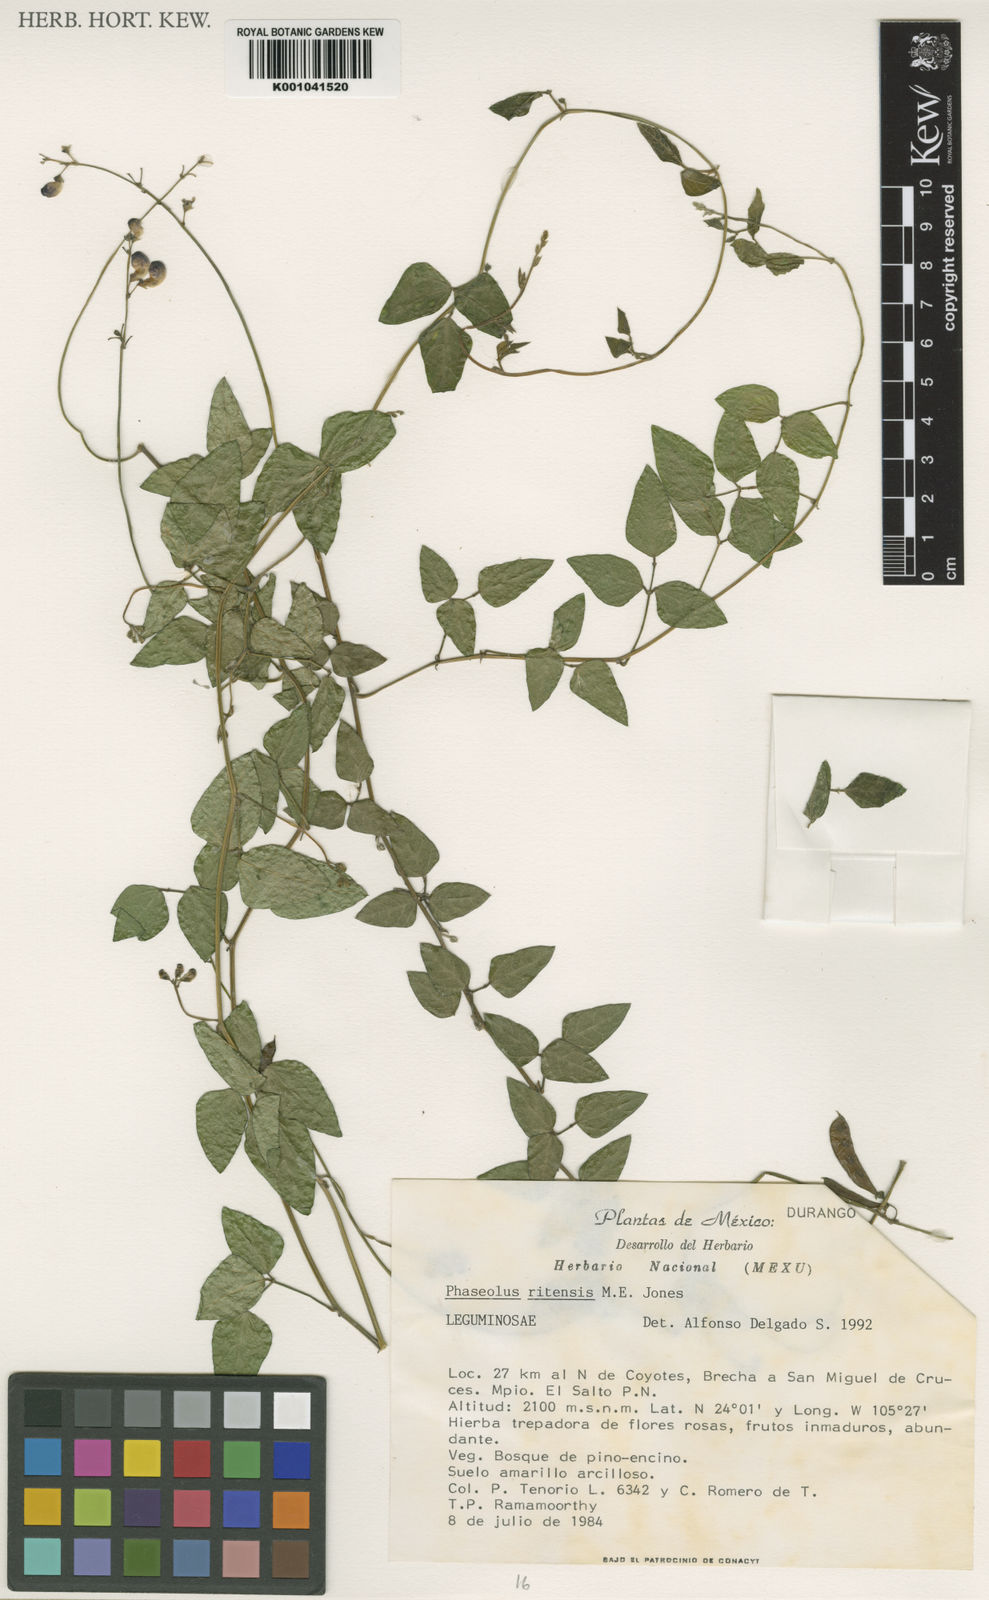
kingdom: Plantae
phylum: Tracheophyta
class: Magnoliopsida
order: Fabales
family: Fabaceae
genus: Phaseolus
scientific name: Phaseolus maculatus
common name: Metcalfe bean
